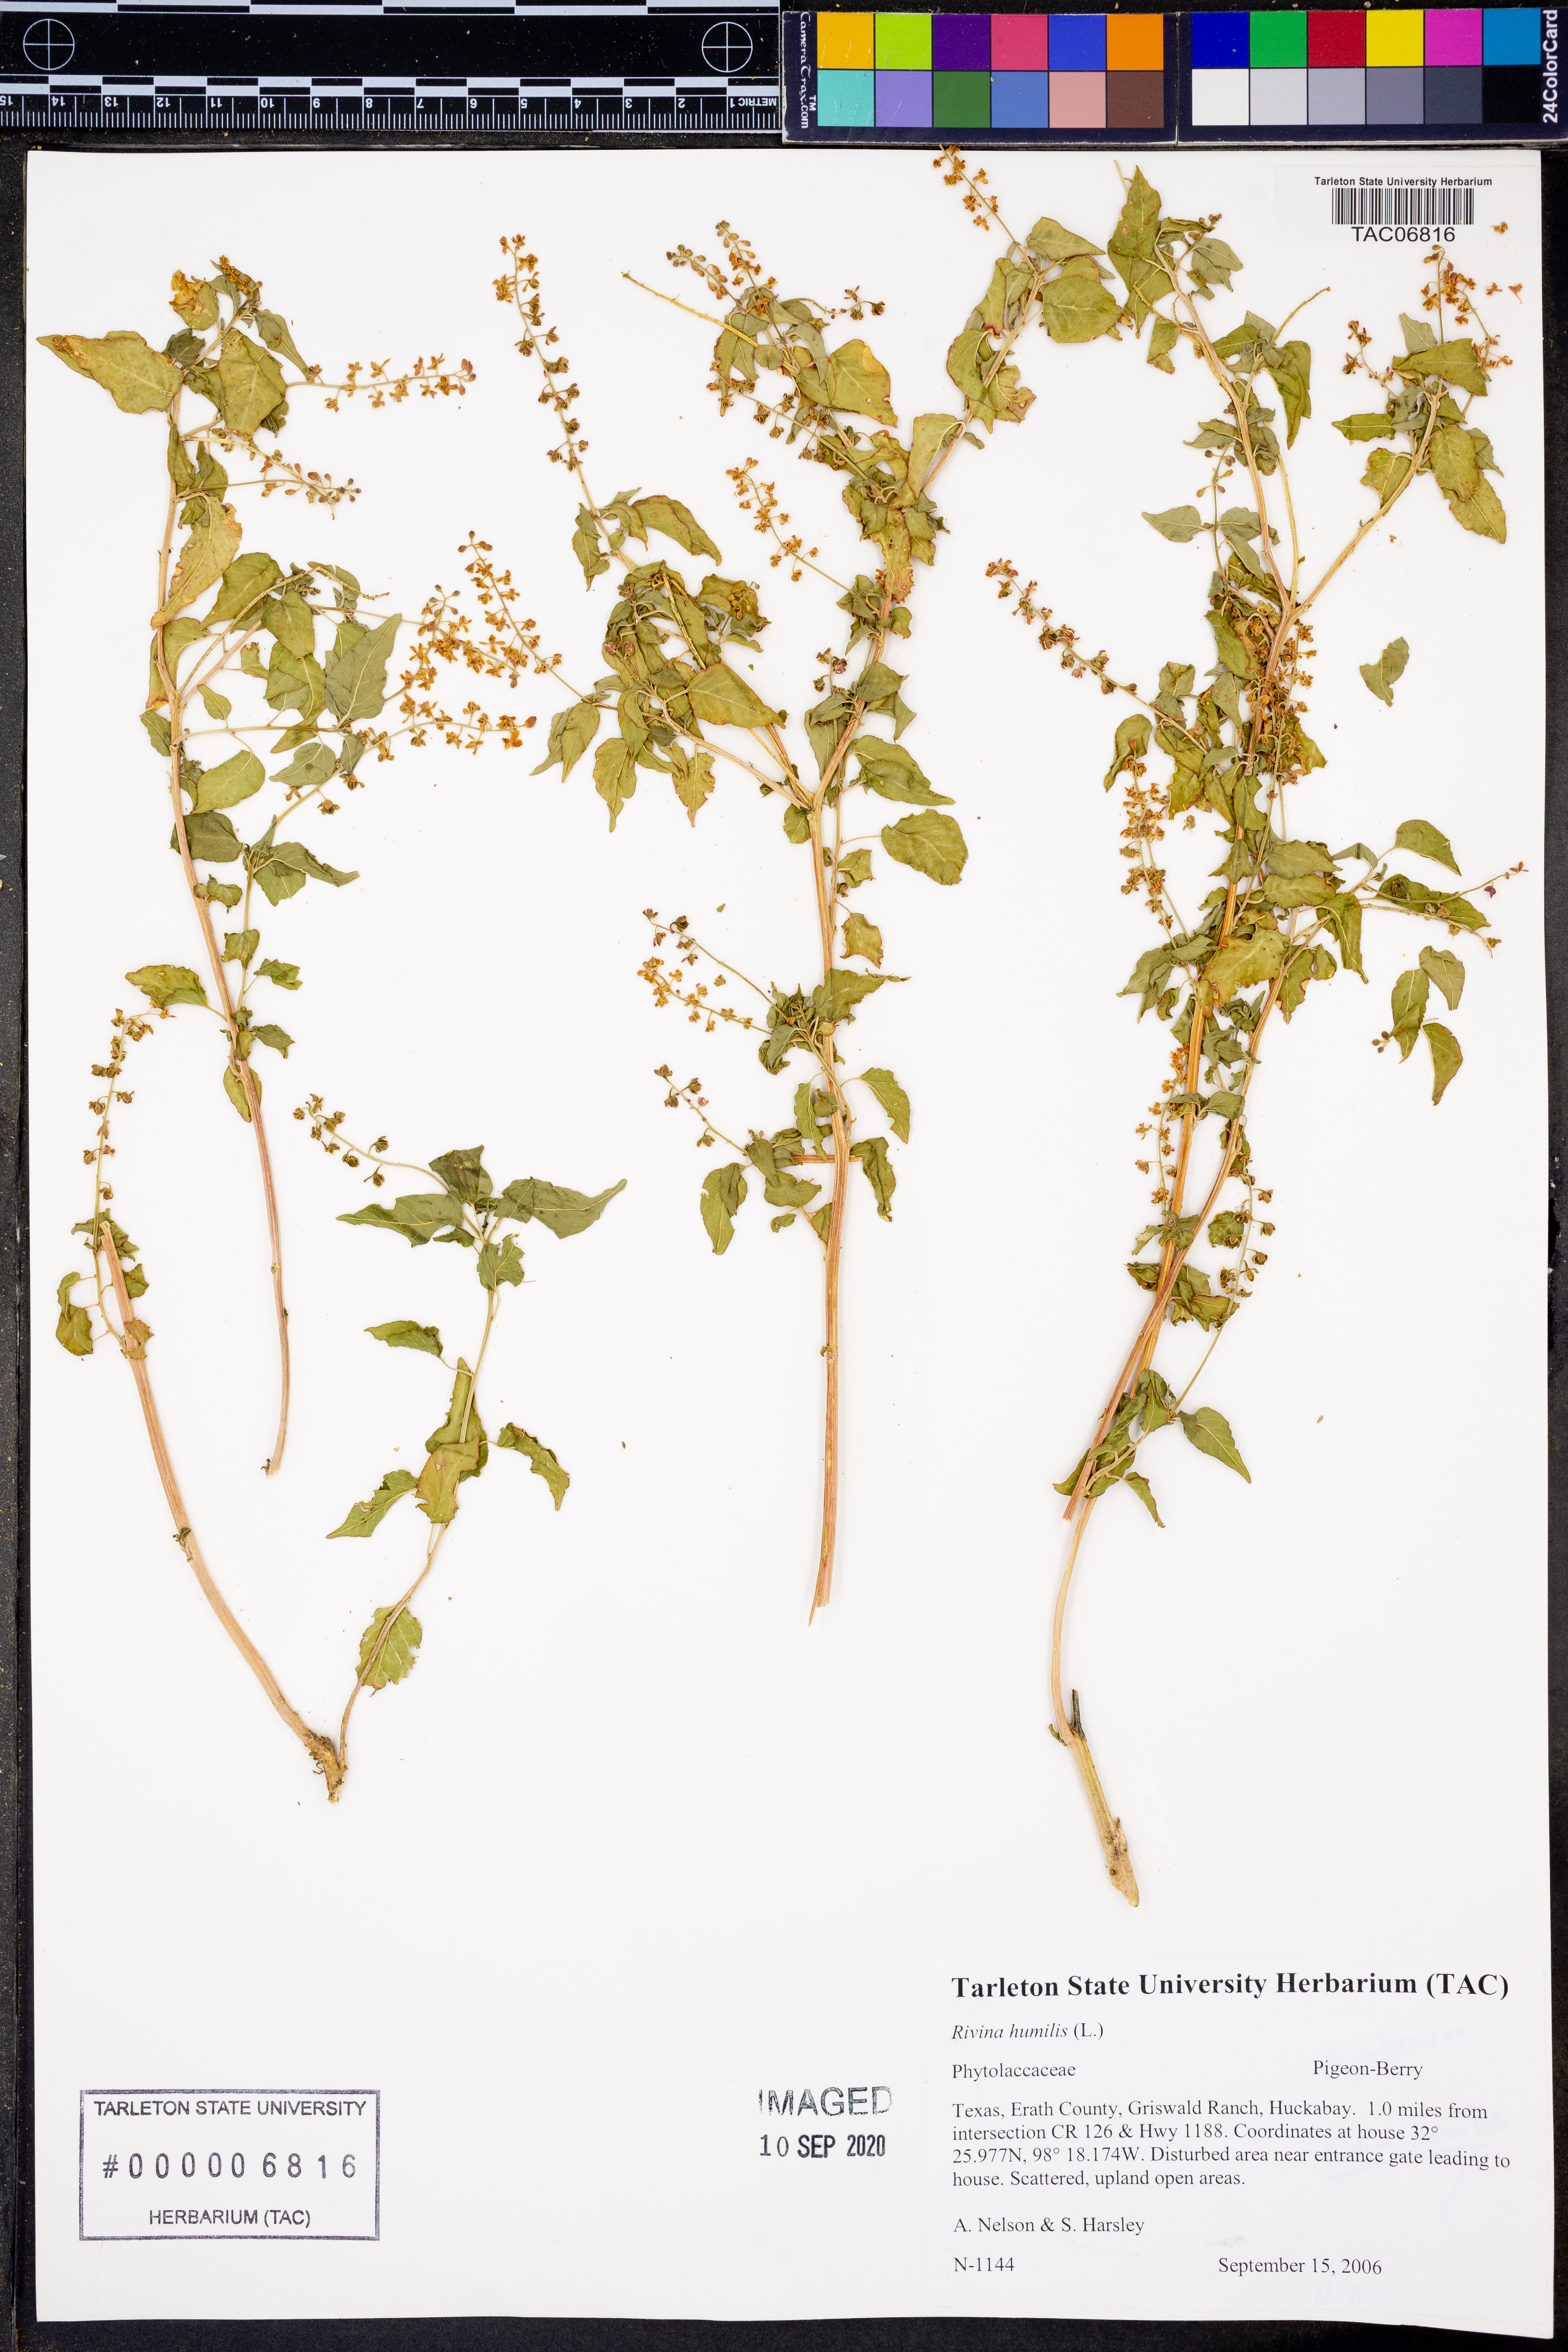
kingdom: Plantae
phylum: Tracheophyta
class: Magnoliopsida
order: Caryophyllales
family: Phytolaccaceae
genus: Rivina
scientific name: Rivina humilis
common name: Rougeplant
